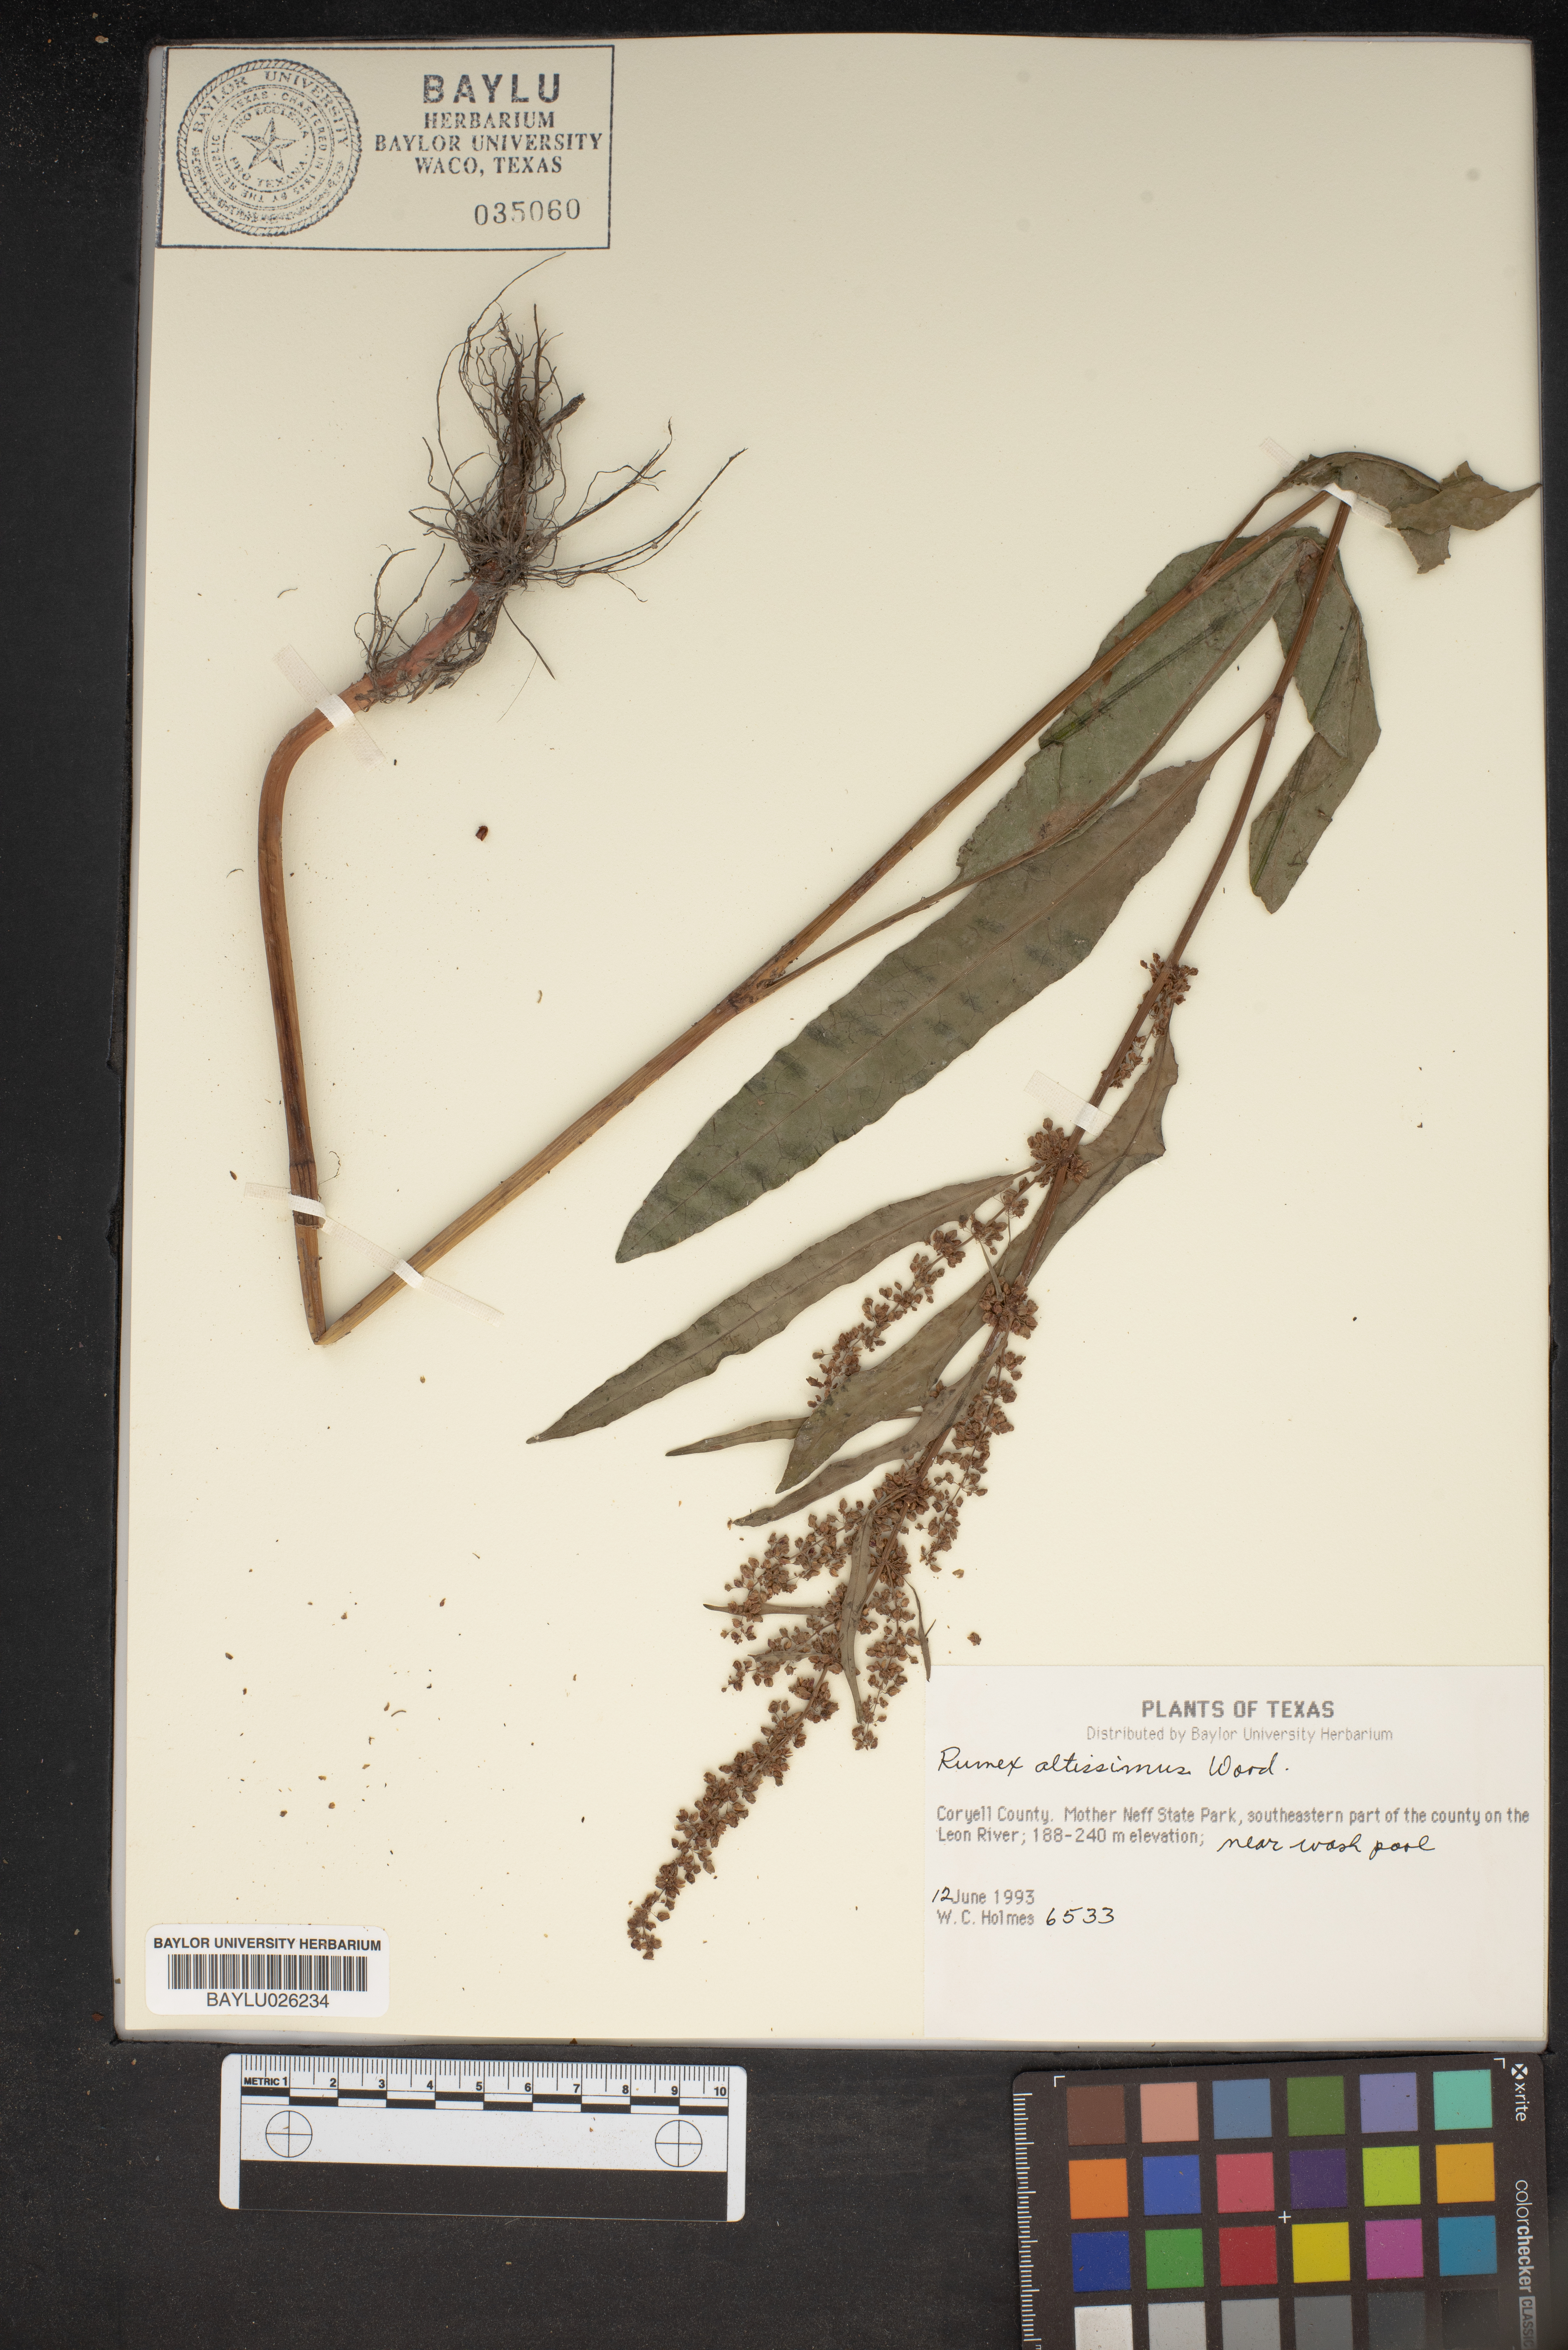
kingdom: Plantae
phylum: Tracheophyta
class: Magnoliopsida
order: Caryophyllales
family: Polygonaceae
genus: Rumex
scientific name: Rumex altissimus
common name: Smooth dock
